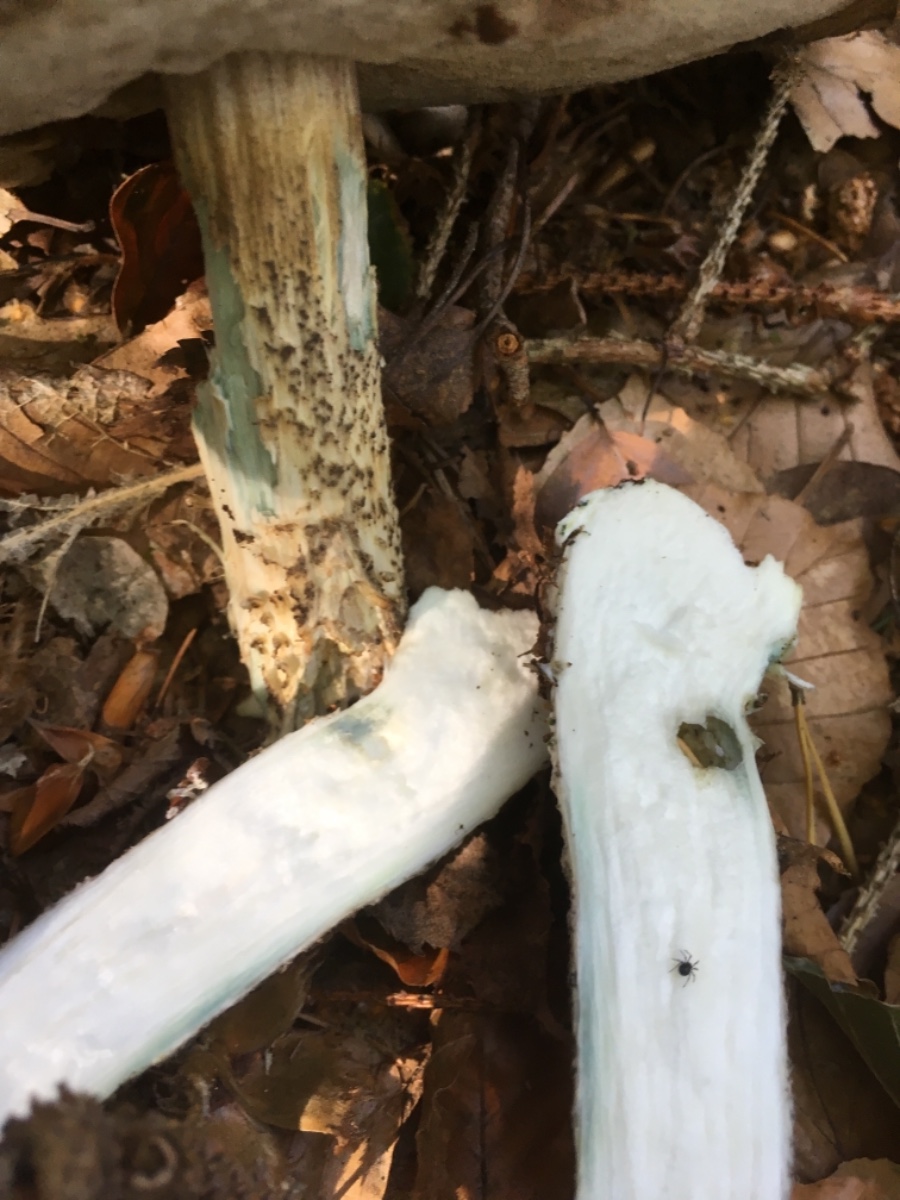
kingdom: Fungi
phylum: Basidiomycota
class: Agaricomycetes
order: Boletales
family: Boletaceae
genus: Leccinum
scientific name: Leccinum cyaneobasileucum
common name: almindelig skælrørhat
